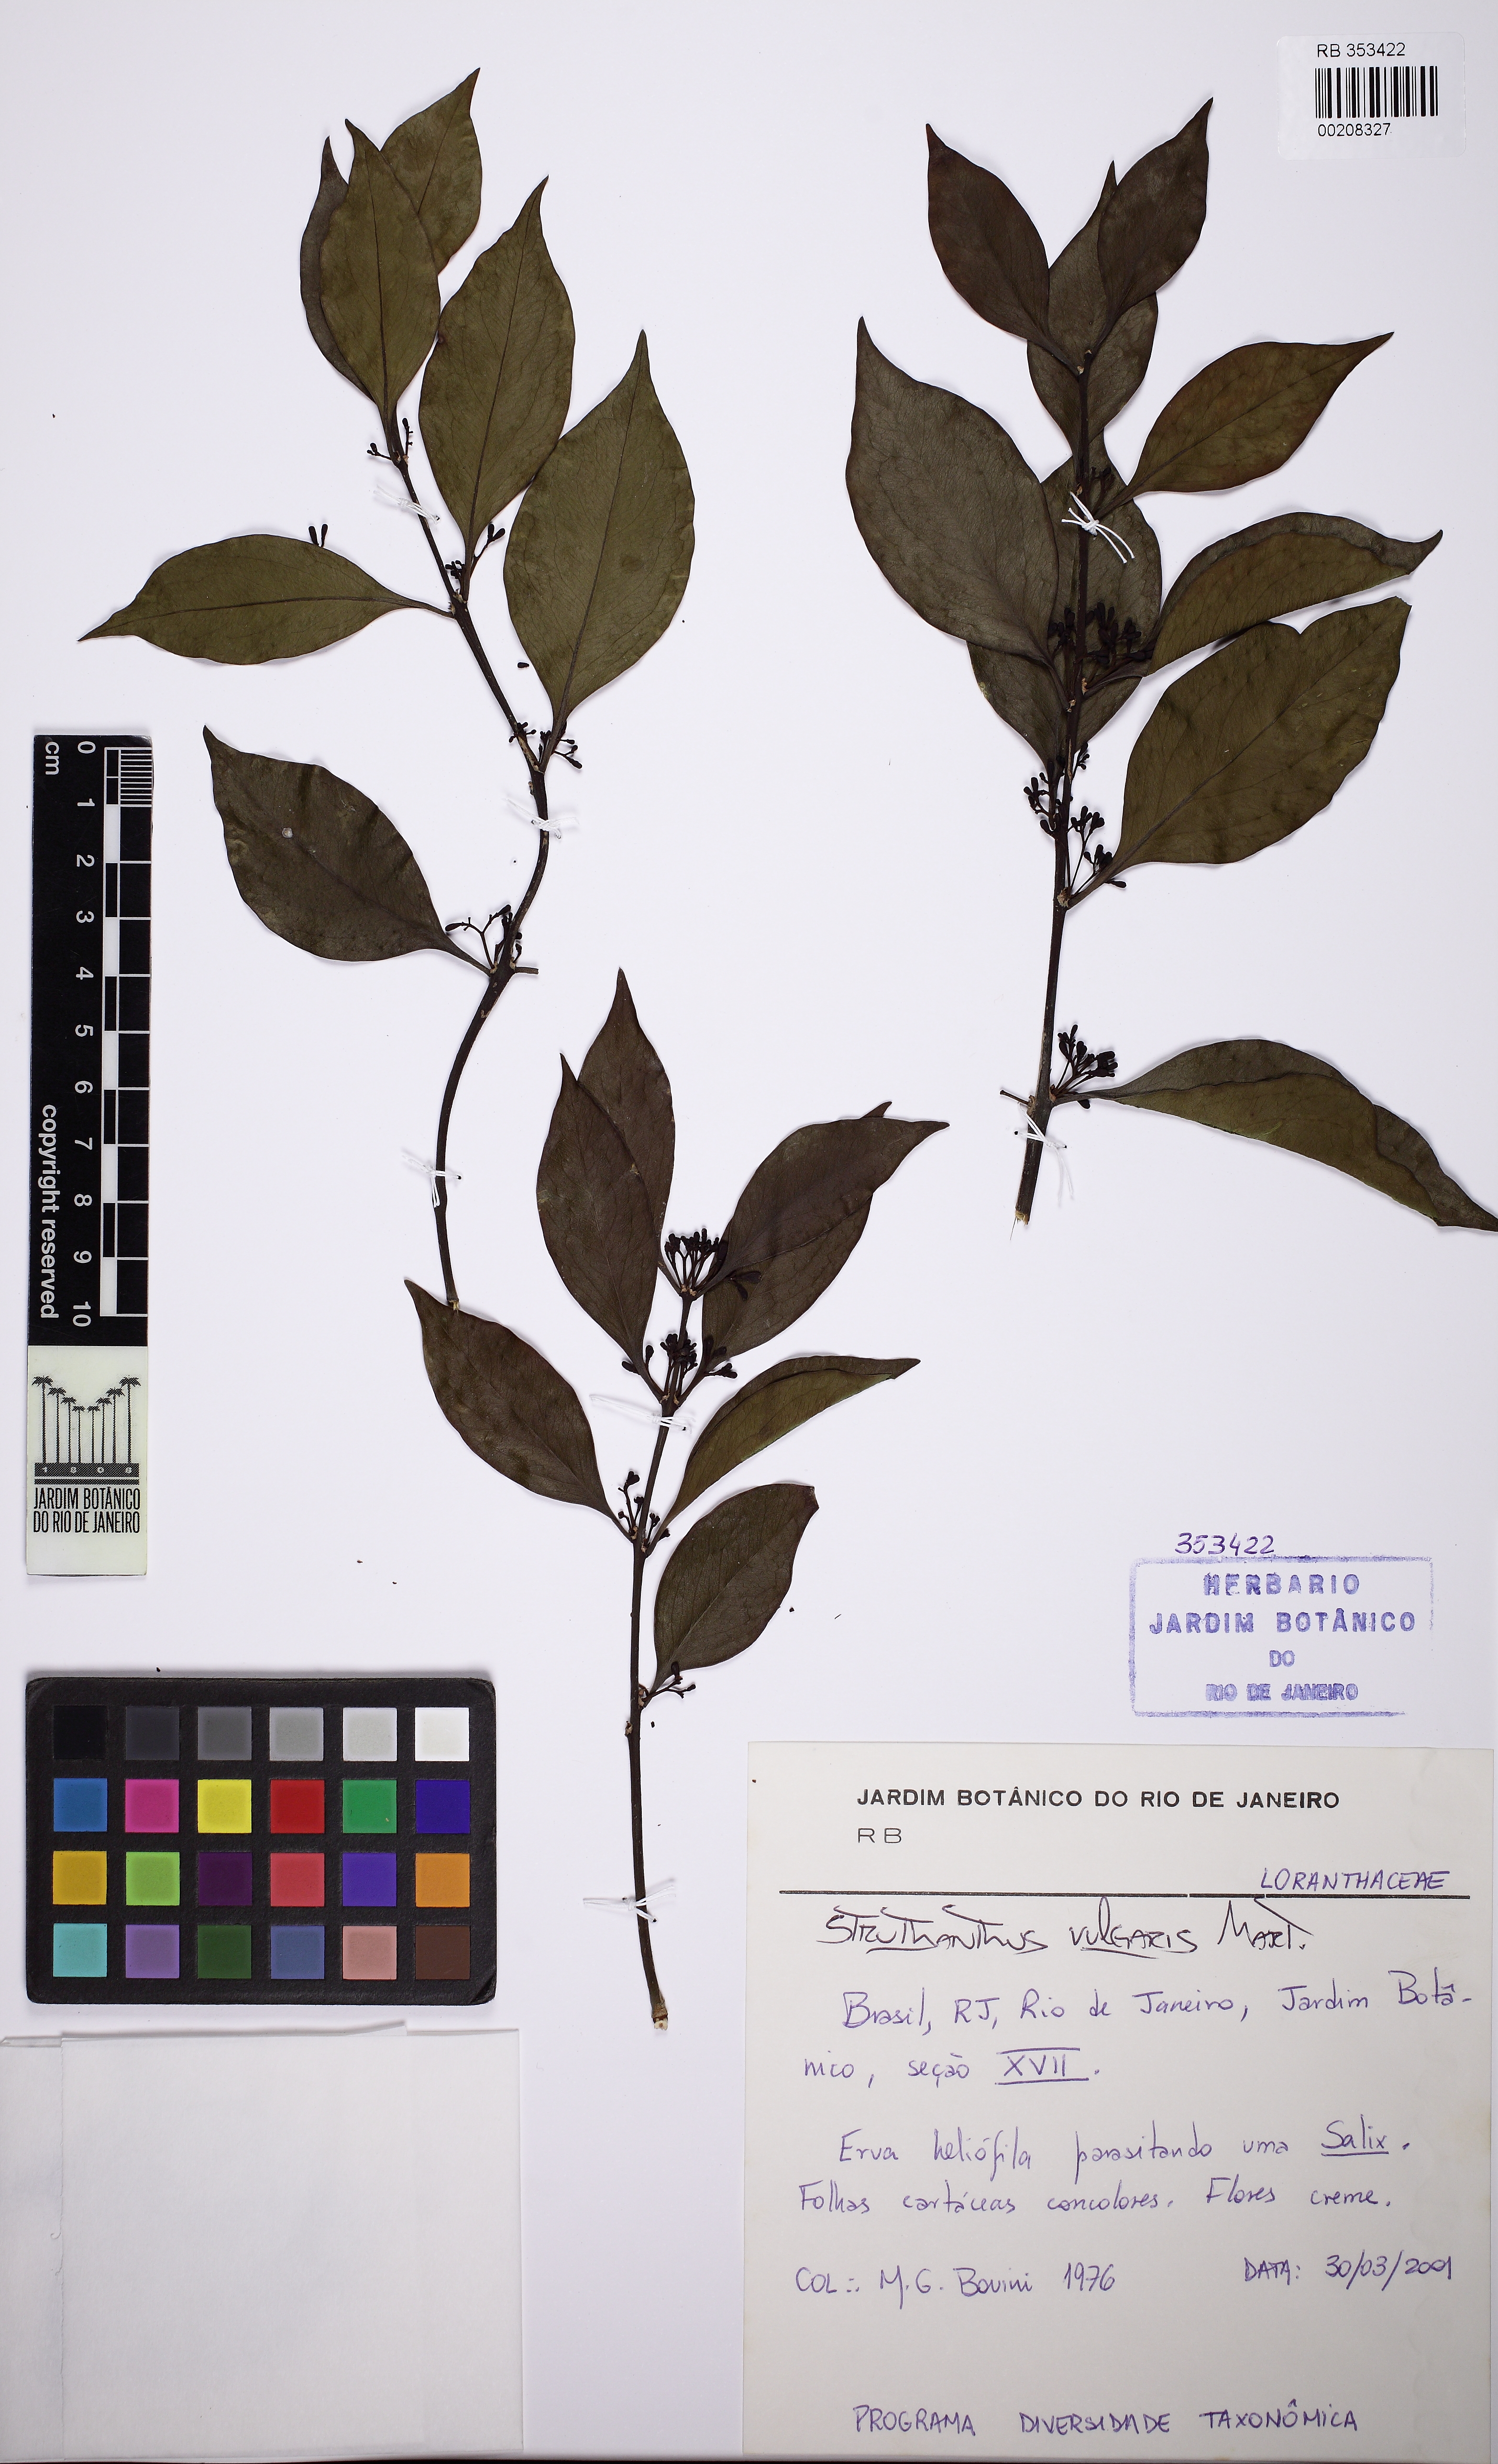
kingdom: Plantae
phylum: Tracheophyta
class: Magnoliopsida
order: Santalales
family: Loranthaceae
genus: Struthanthus
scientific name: Struthanthus marginatus
